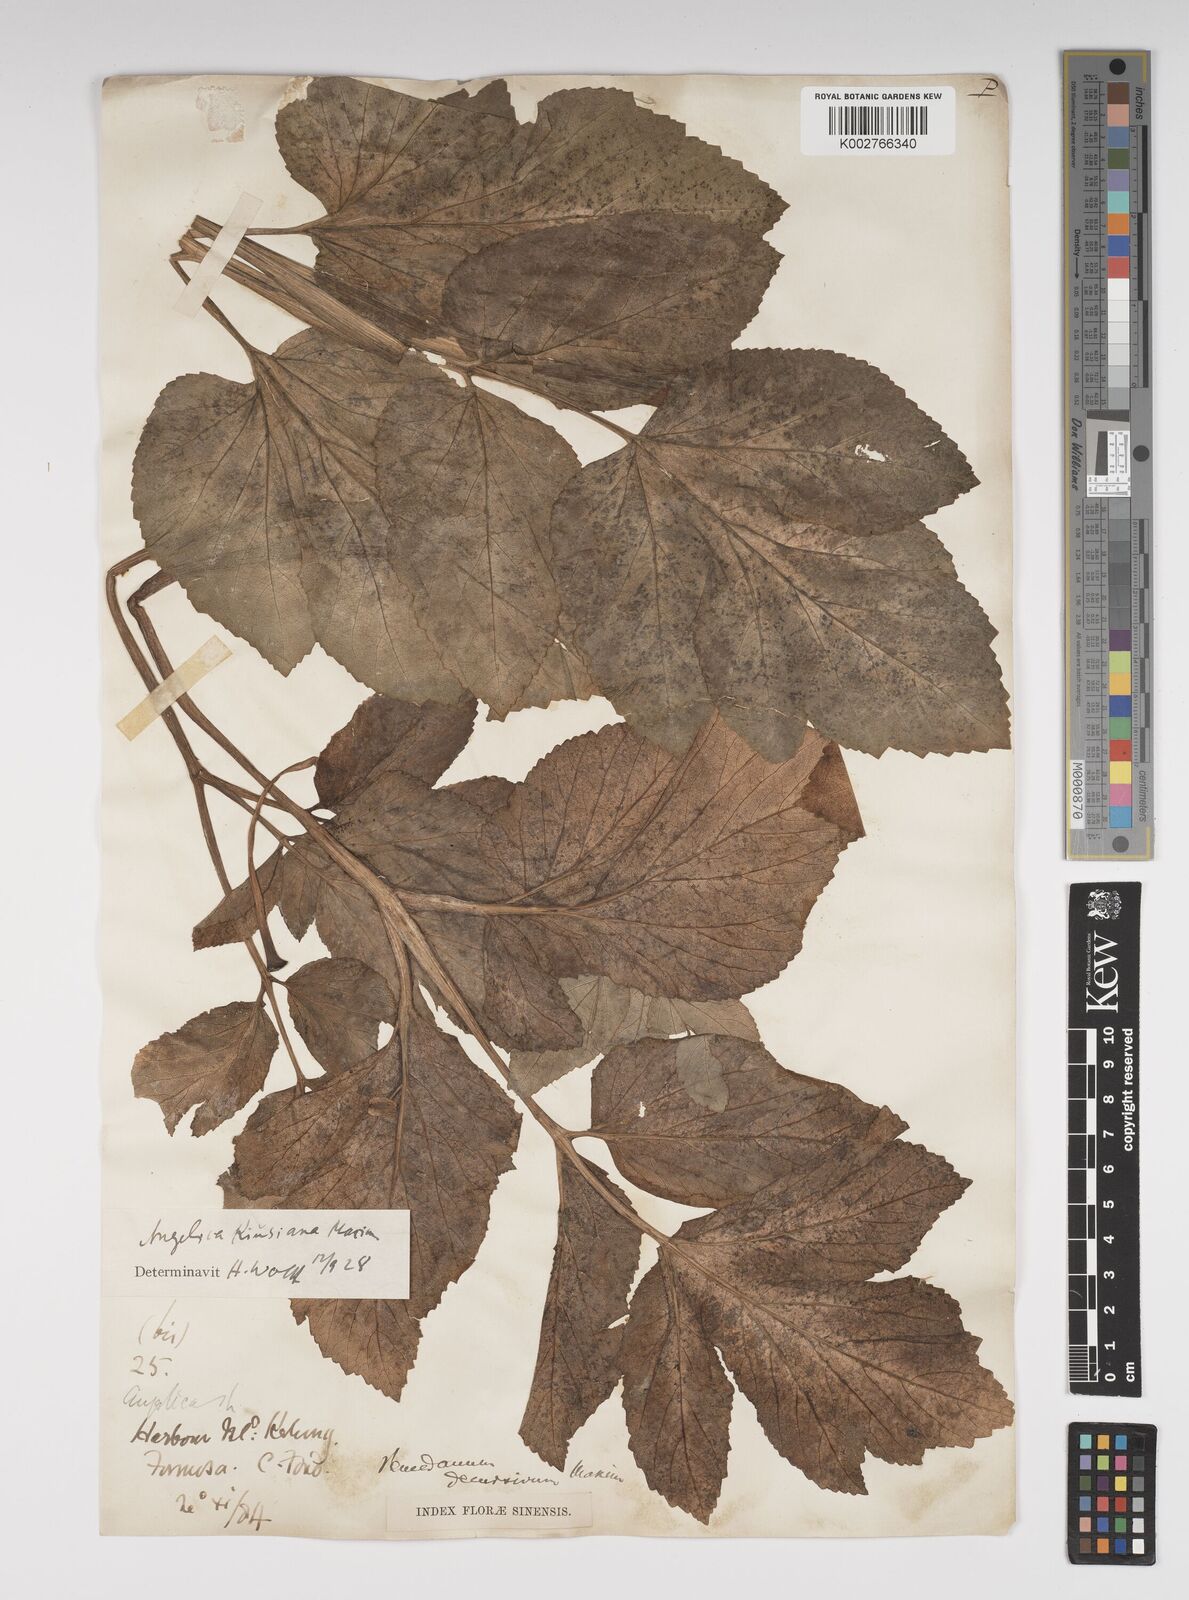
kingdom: Plantae
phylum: Tracheophyta
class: Magnoliopsida
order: Apiales
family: Apiaceae
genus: Angelica
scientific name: Angelica japonica
